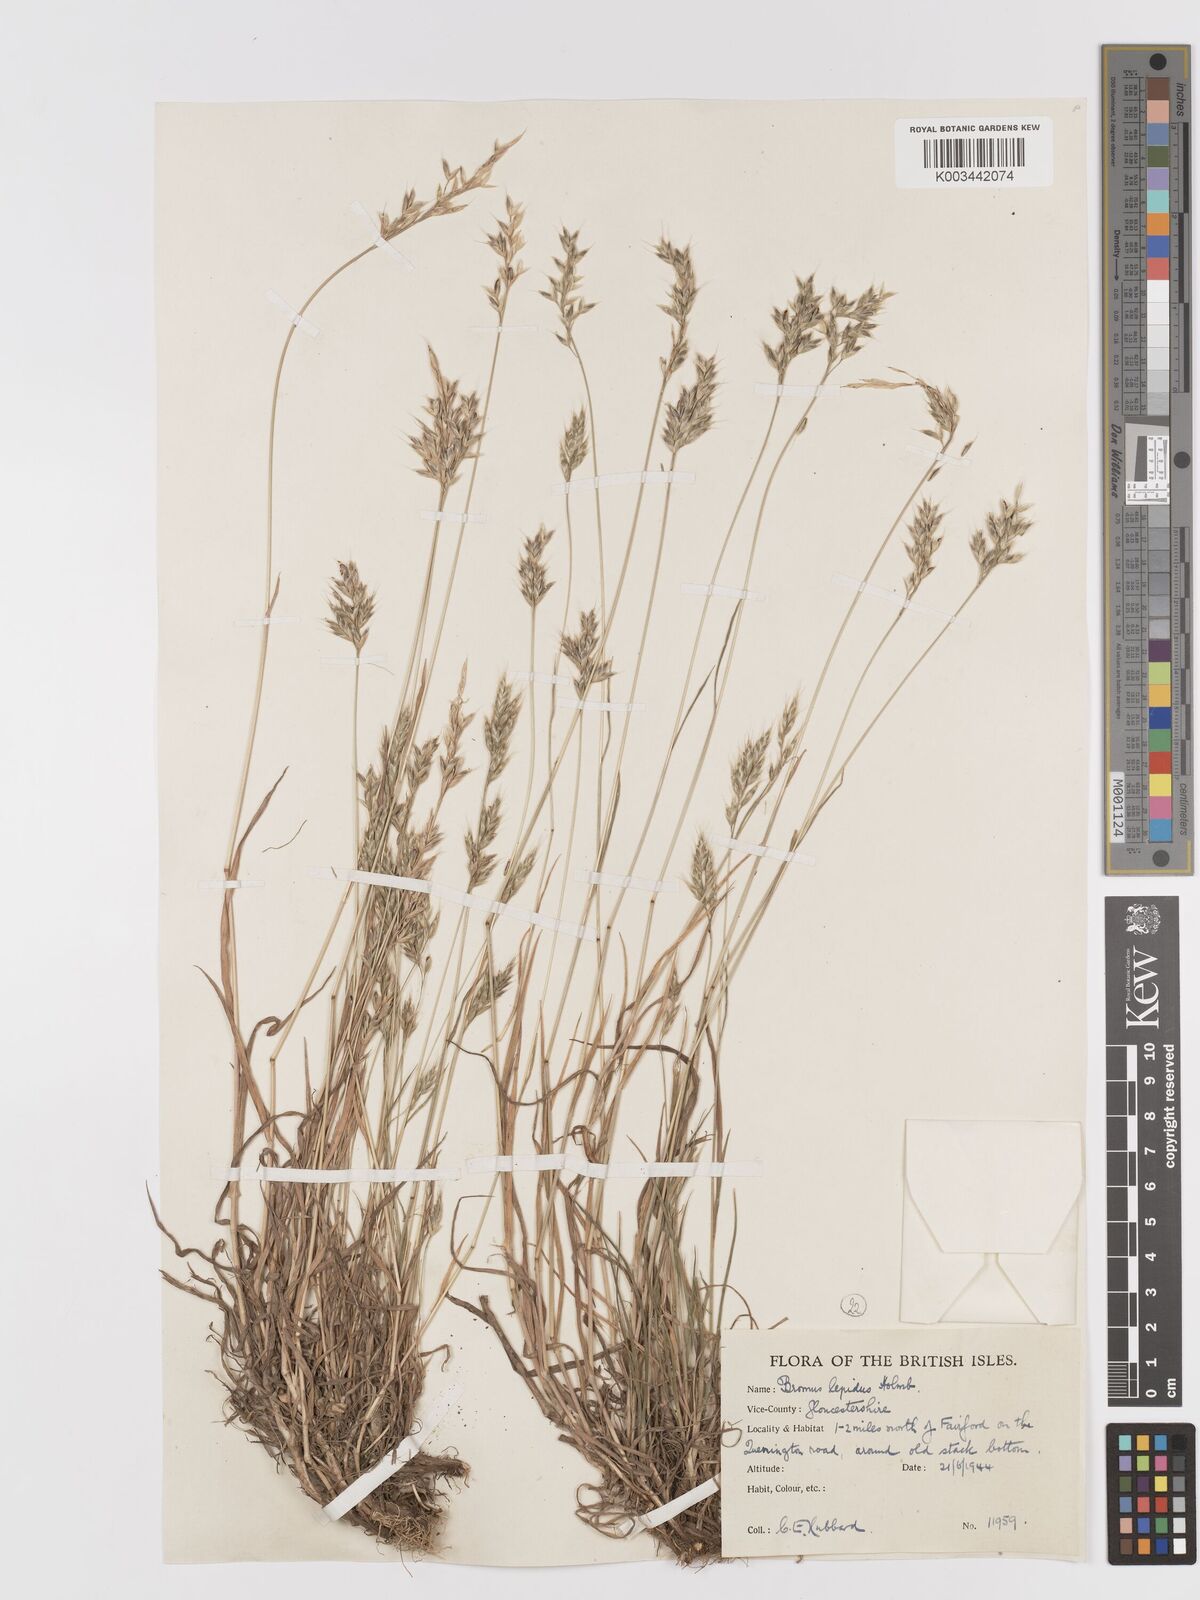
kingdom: Plantae
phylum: Tracheophyta
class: Liliopsida
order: Poales
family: Poaceae
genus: Bromus
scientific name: Bromus lepidus
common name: Slender soft-brome
